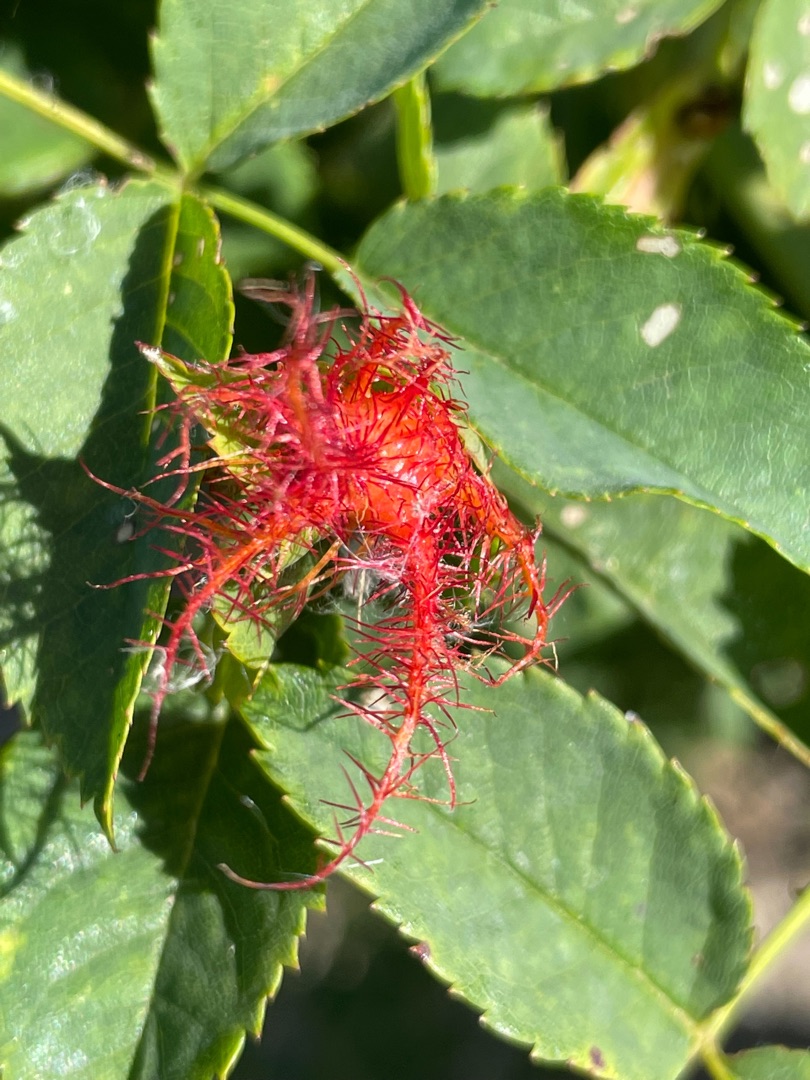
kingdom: Animalia
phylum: Arthropoda
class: Insecta
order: Hymenoptera
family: Cynipidae
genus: Diplolepis
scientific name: Diplolepis rosae
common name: Bedeguargalhveps
